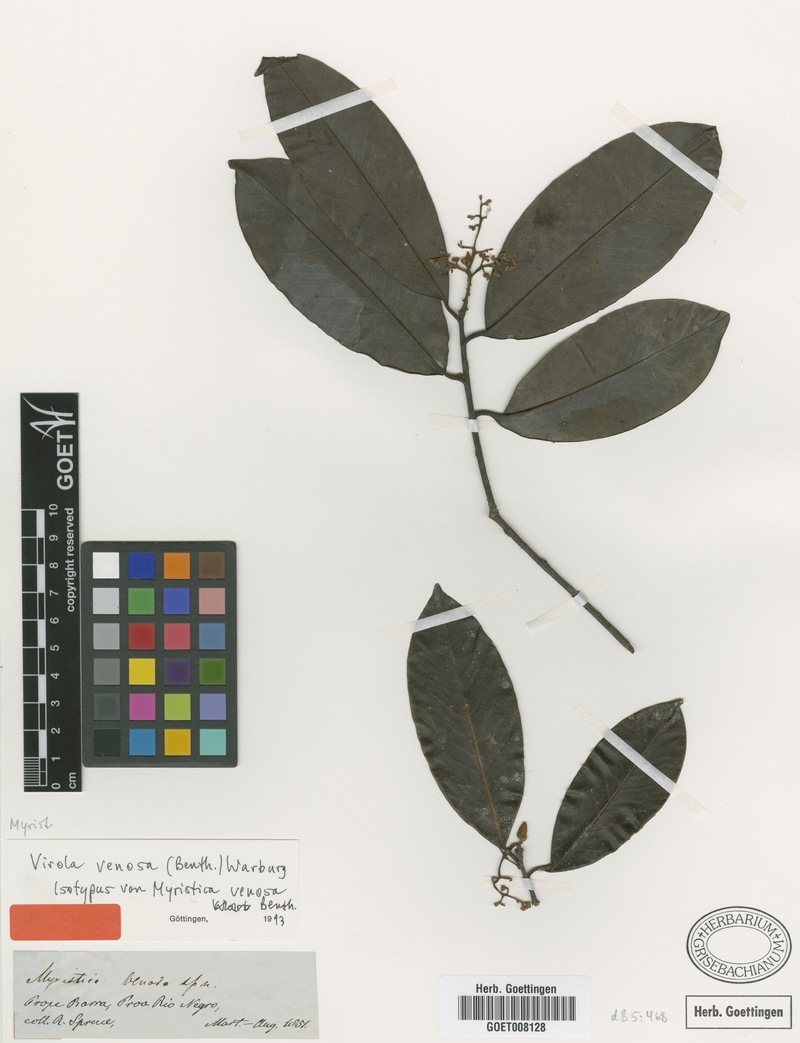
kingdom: Plantae
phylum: Tracheophyta
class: Magnoliopsida
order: Magnoliales
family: Myristicaceae
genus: Virola
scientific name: Virola venosa
